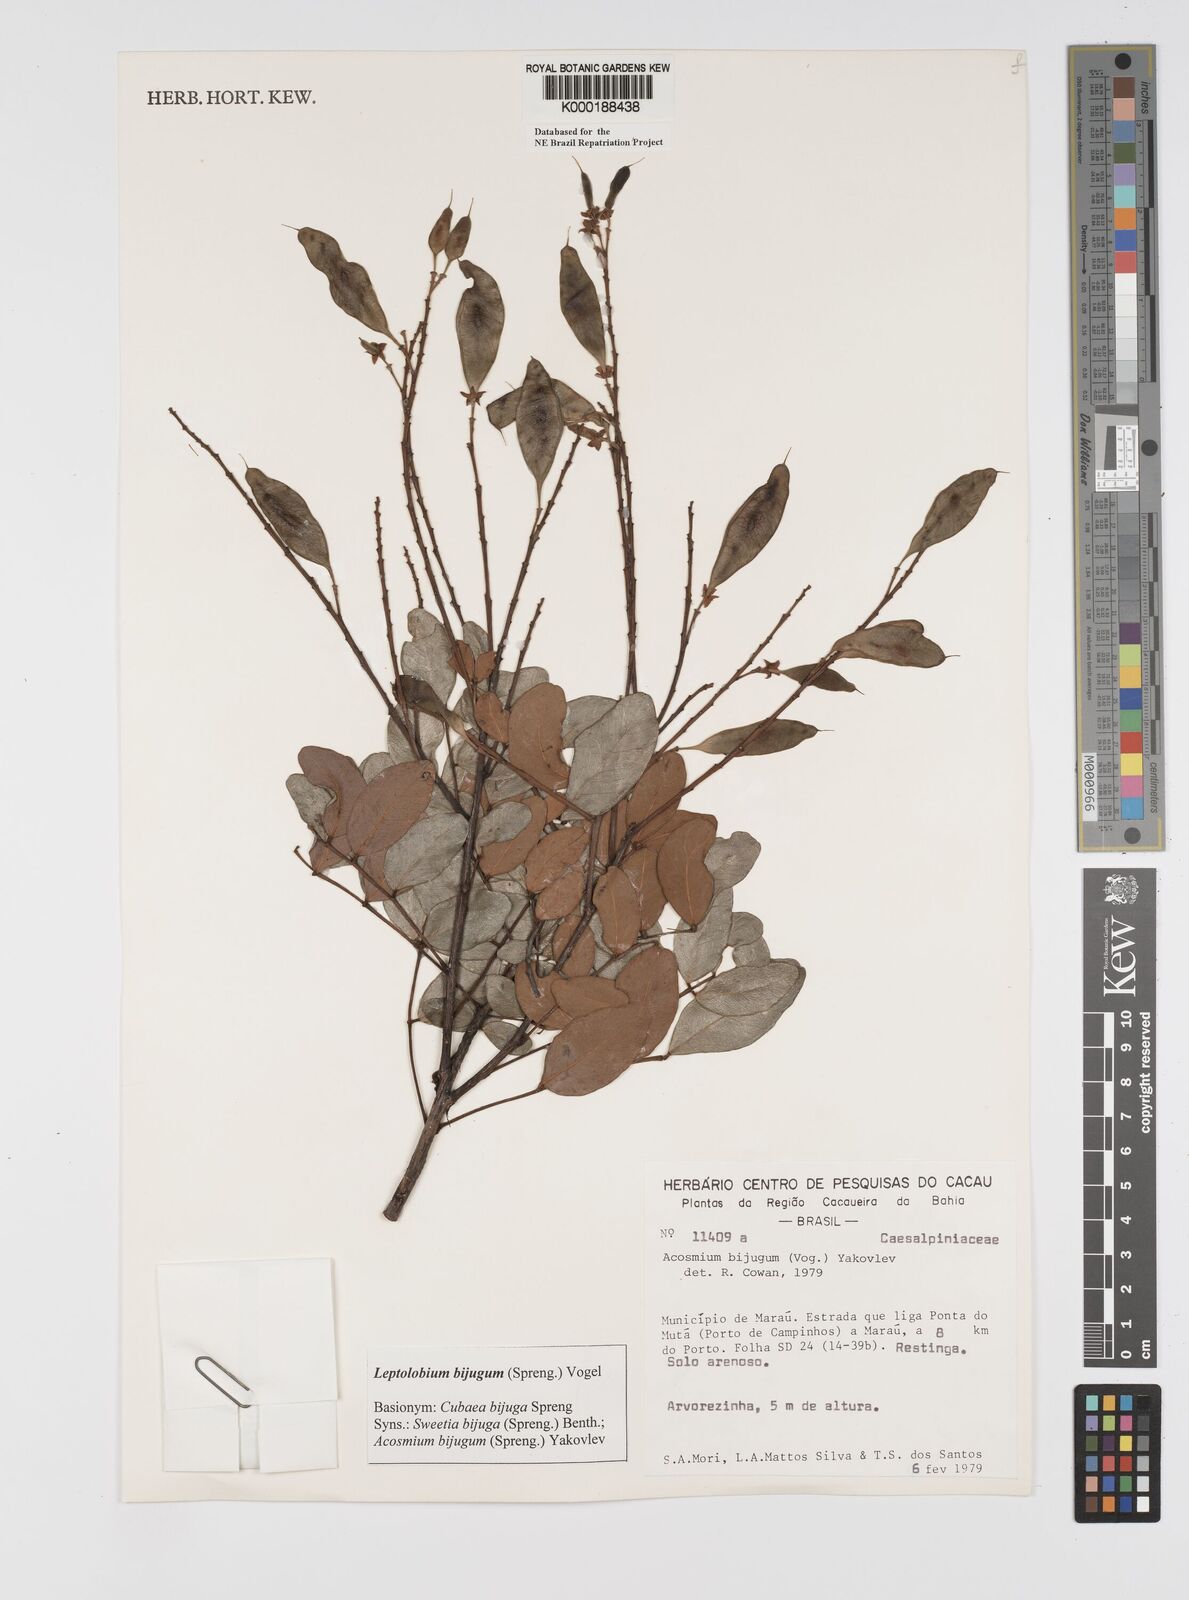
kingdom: Plantae
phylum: Tracheophyta
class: Magnoliopsida
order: Fabales
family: Fabaceae
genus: Leptolobium
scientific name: Leptolobium bijugum
